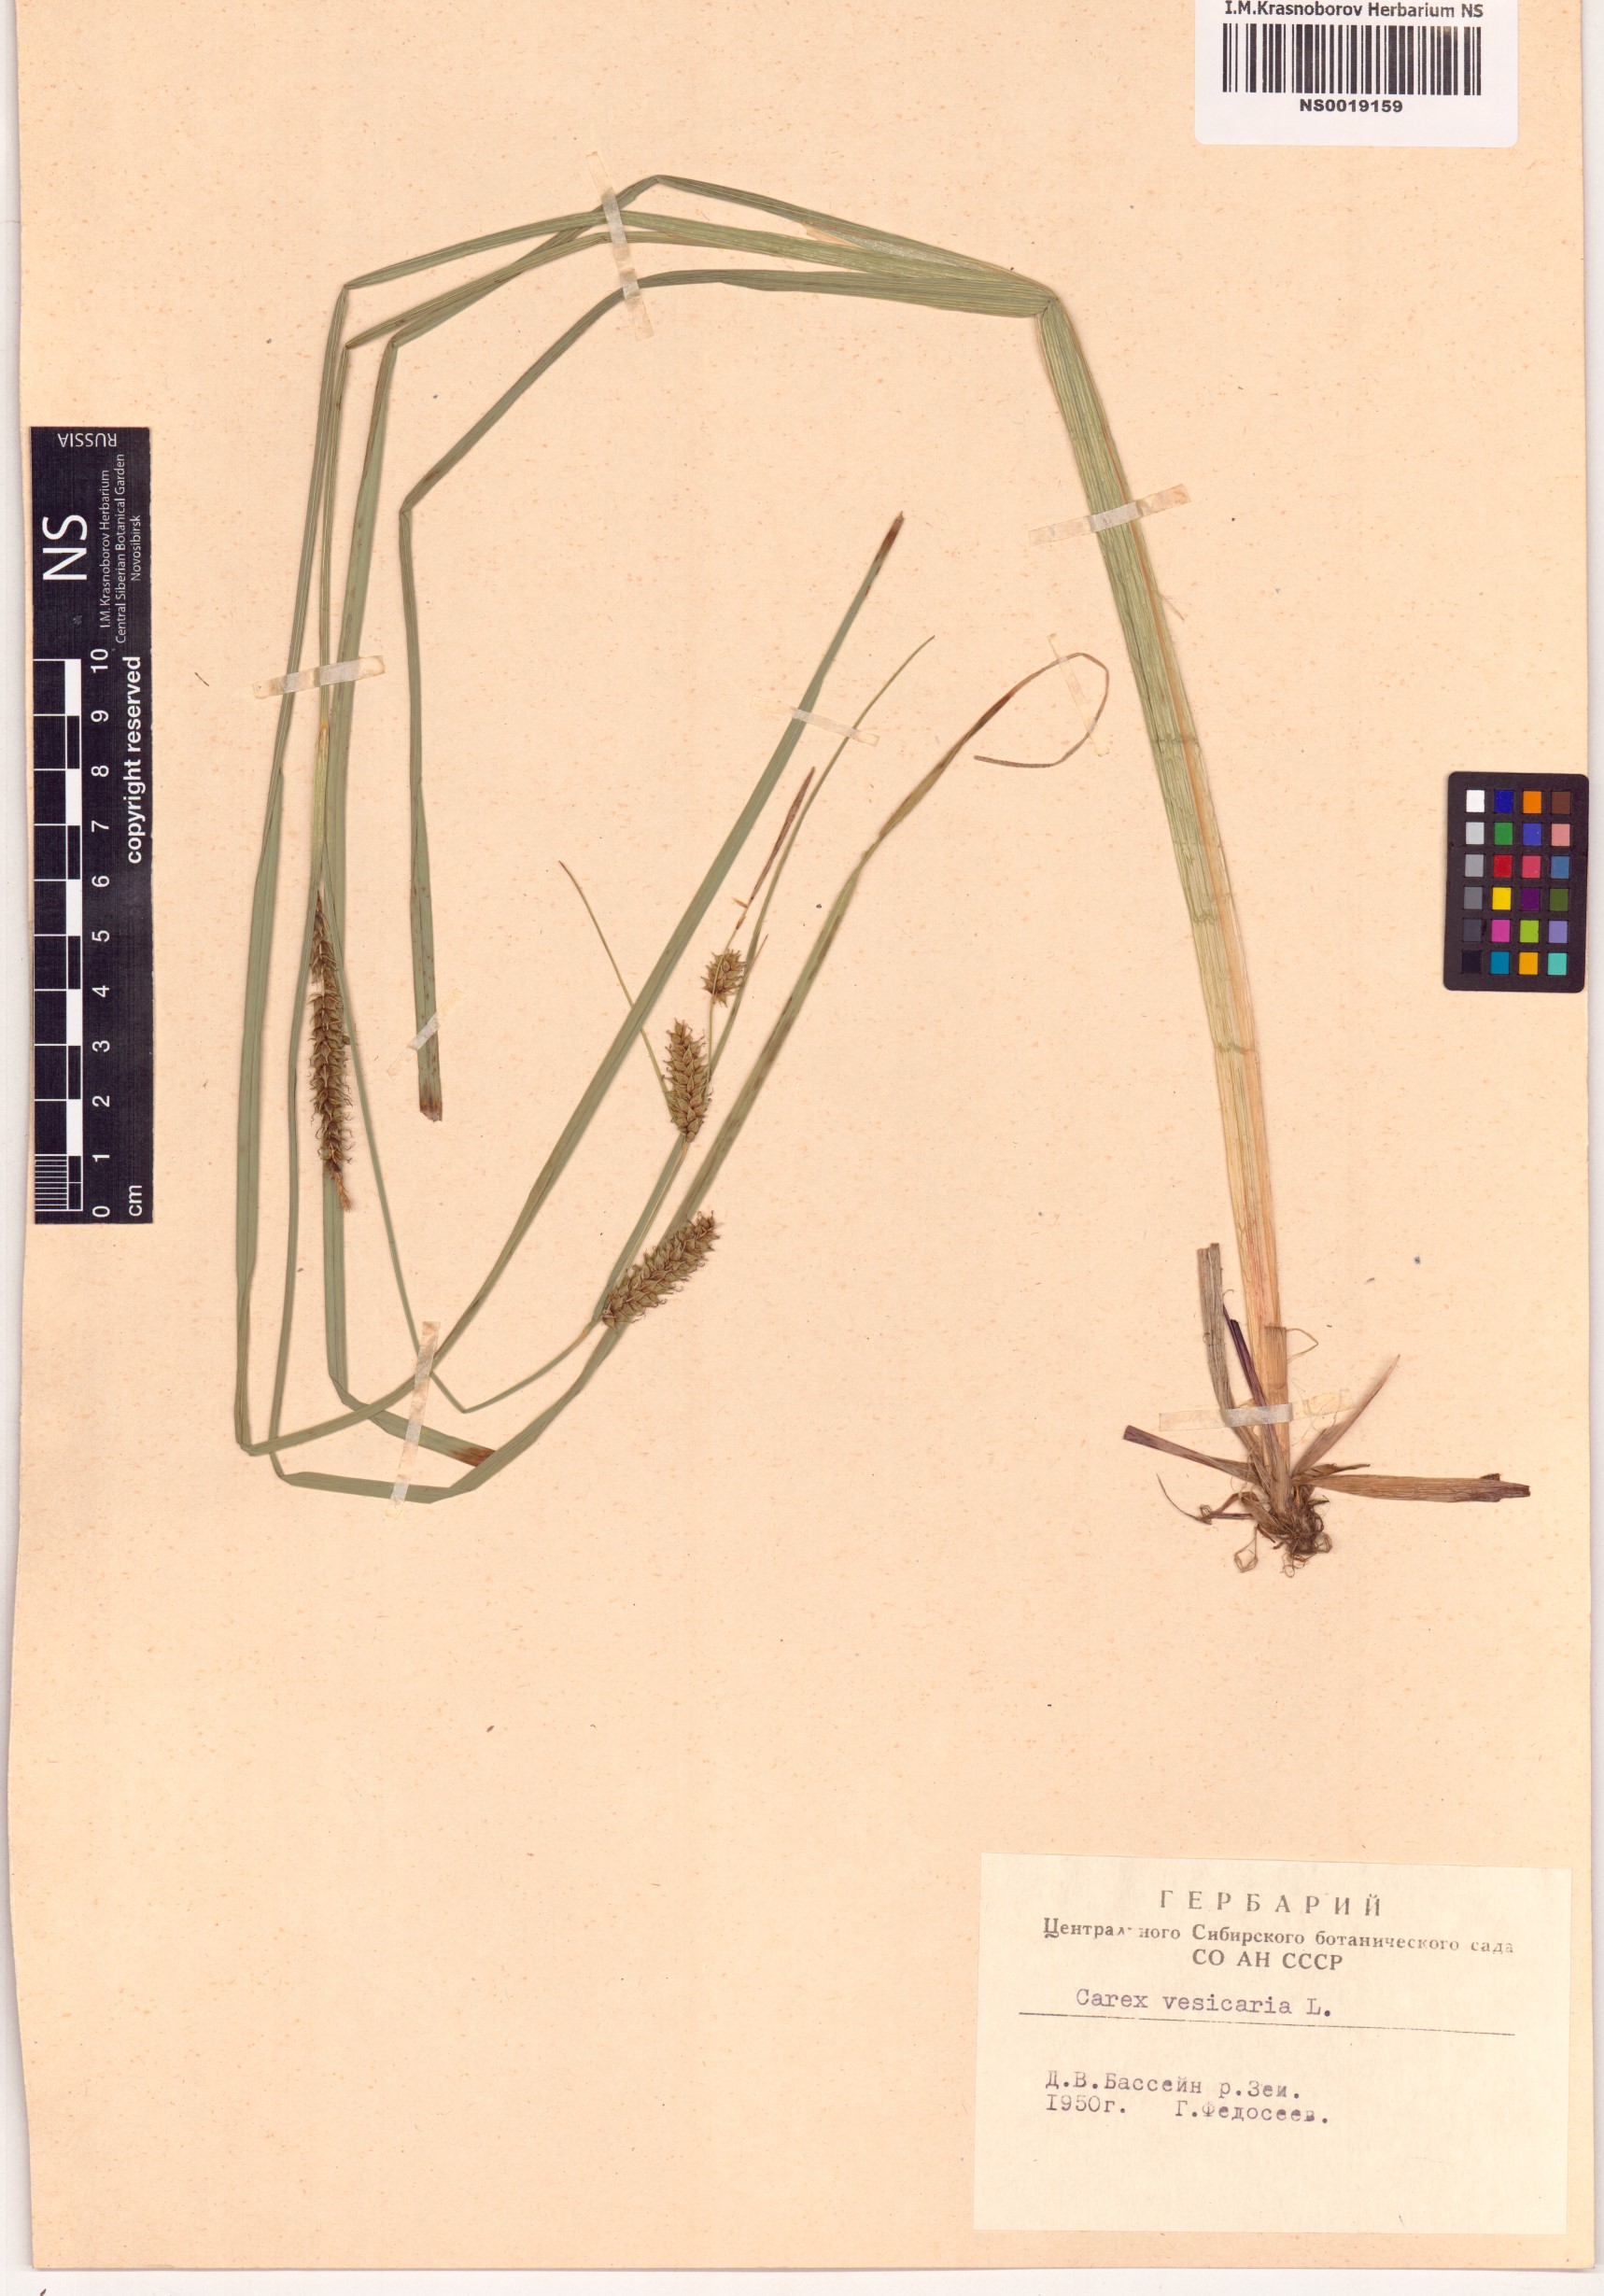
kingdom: Plantae
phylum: Tracheophyta
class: Liliopsida
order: Poales
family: Cyperaceae
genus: Carex
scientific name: Carex vesicaria
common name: Bladder-sedge
